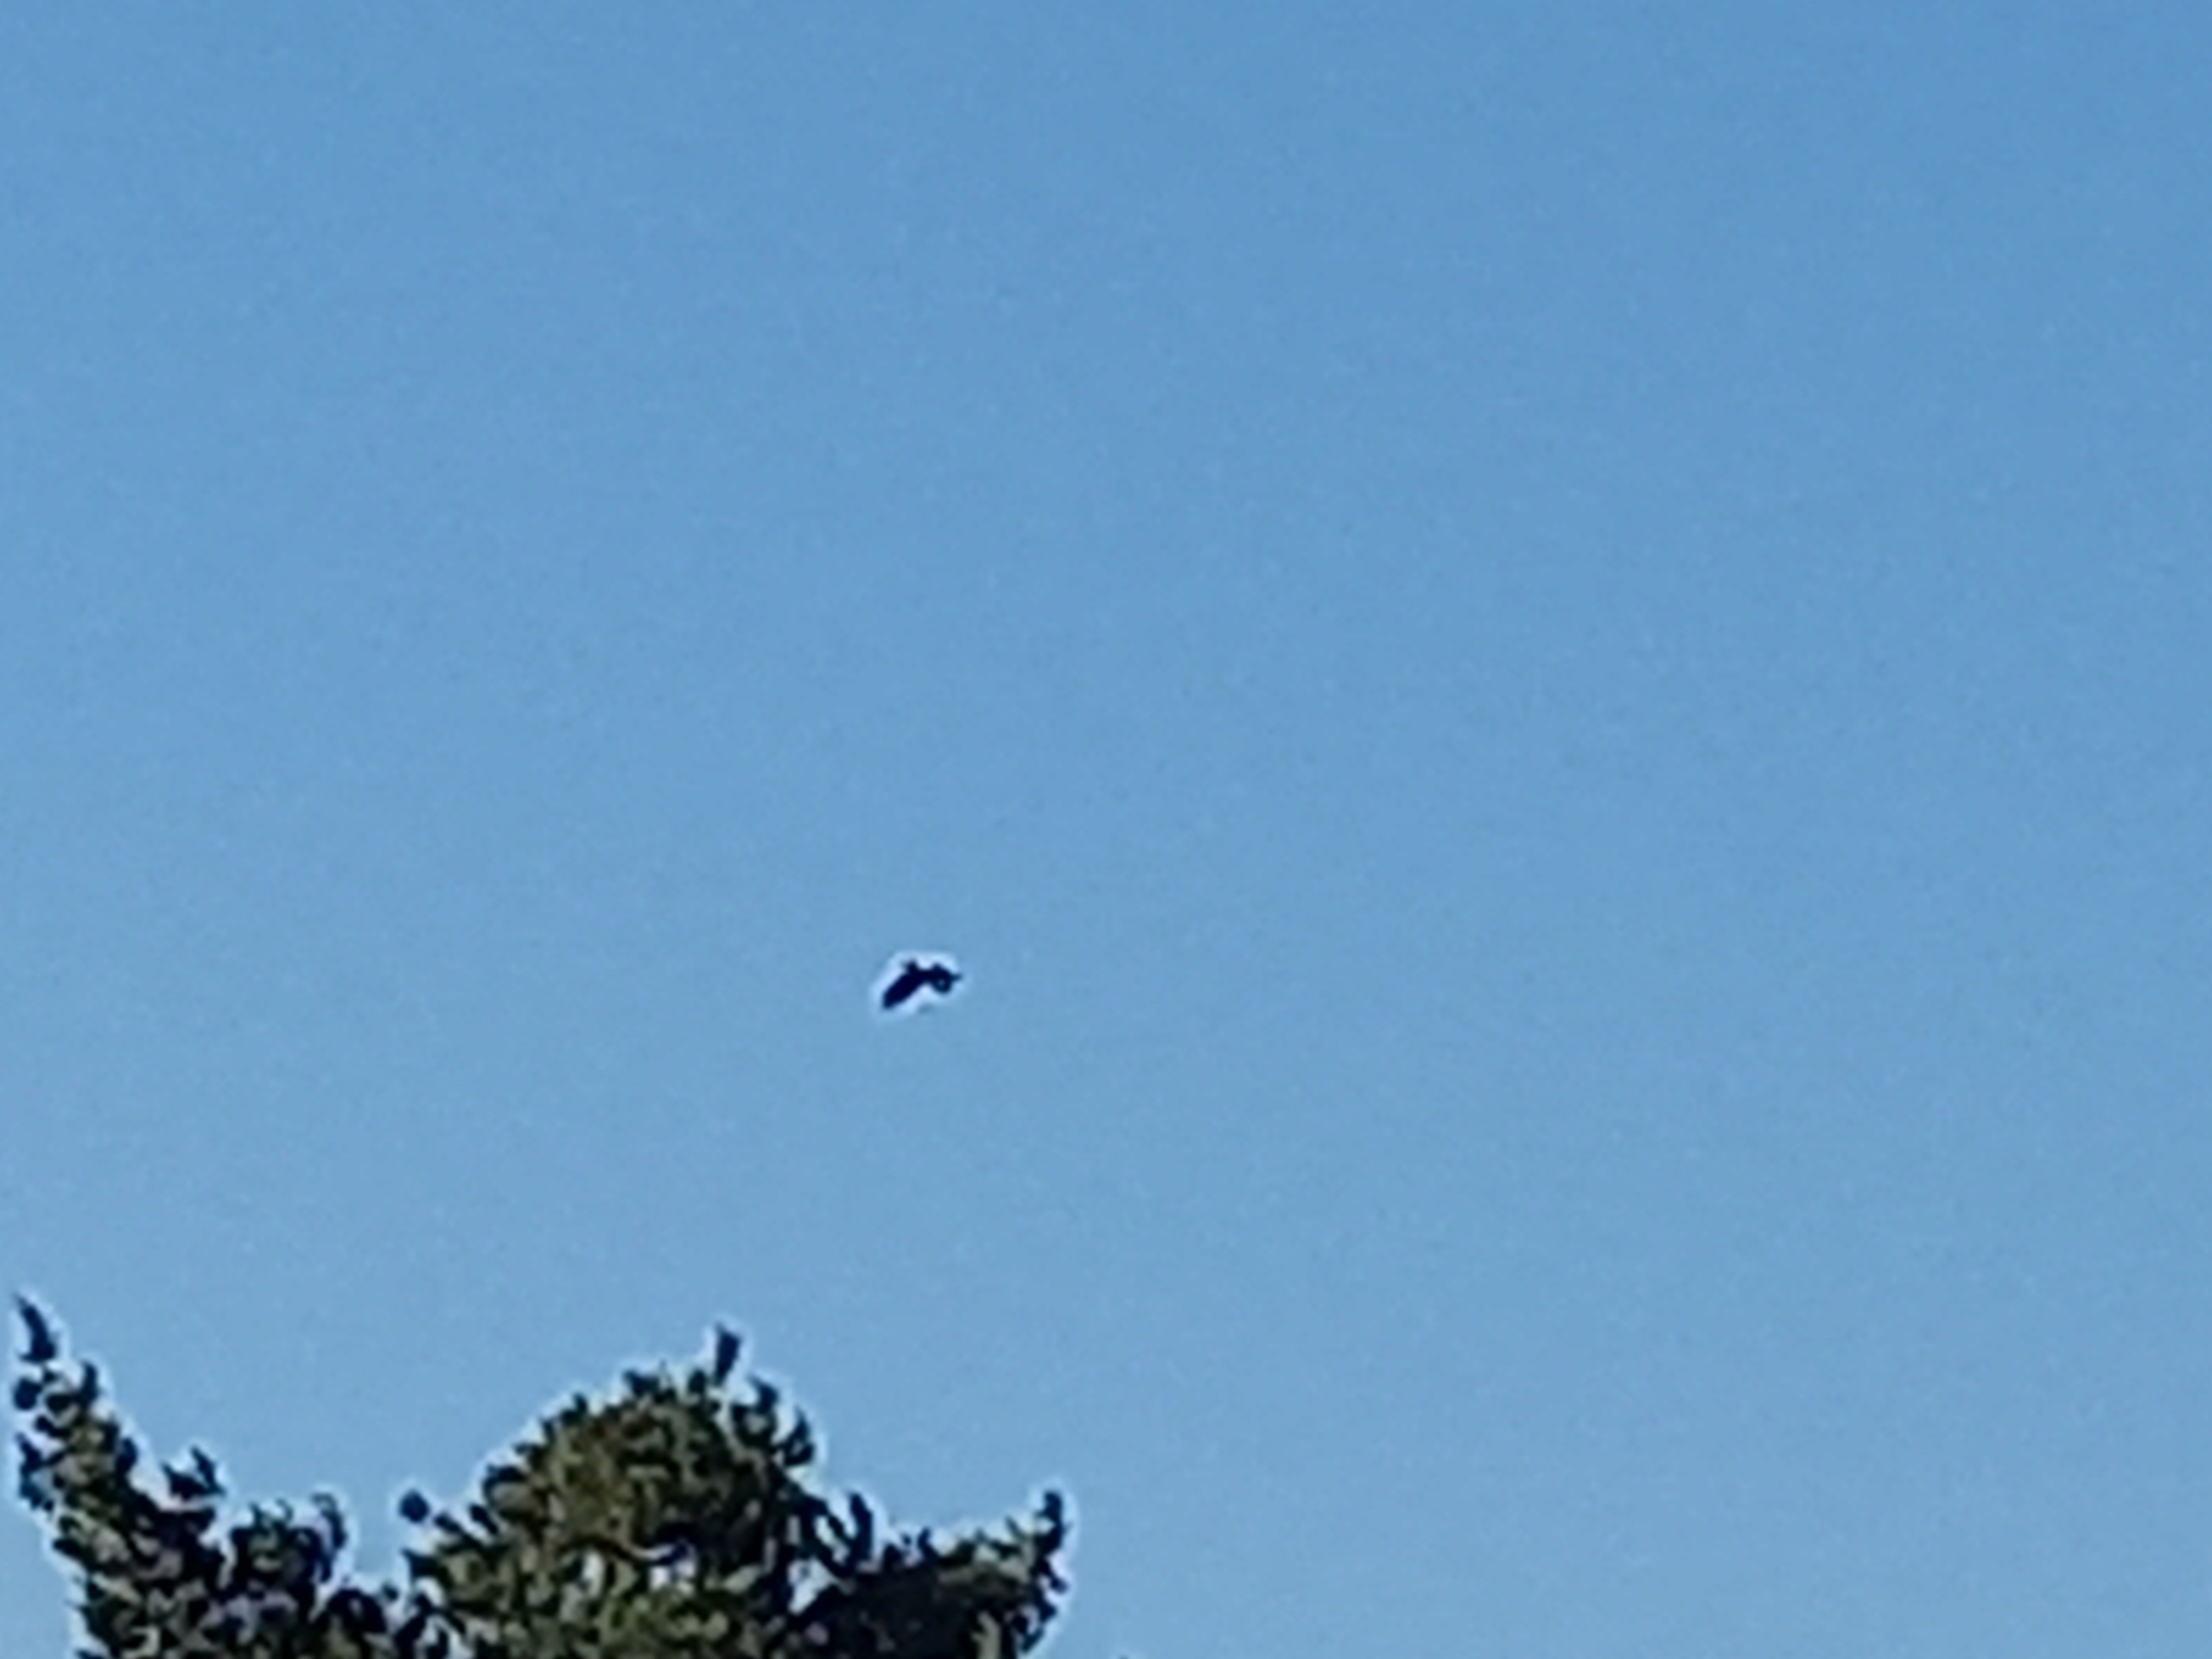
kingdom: Animalia
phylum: Chordata
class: Aves
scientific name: Aves
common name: Fugle
